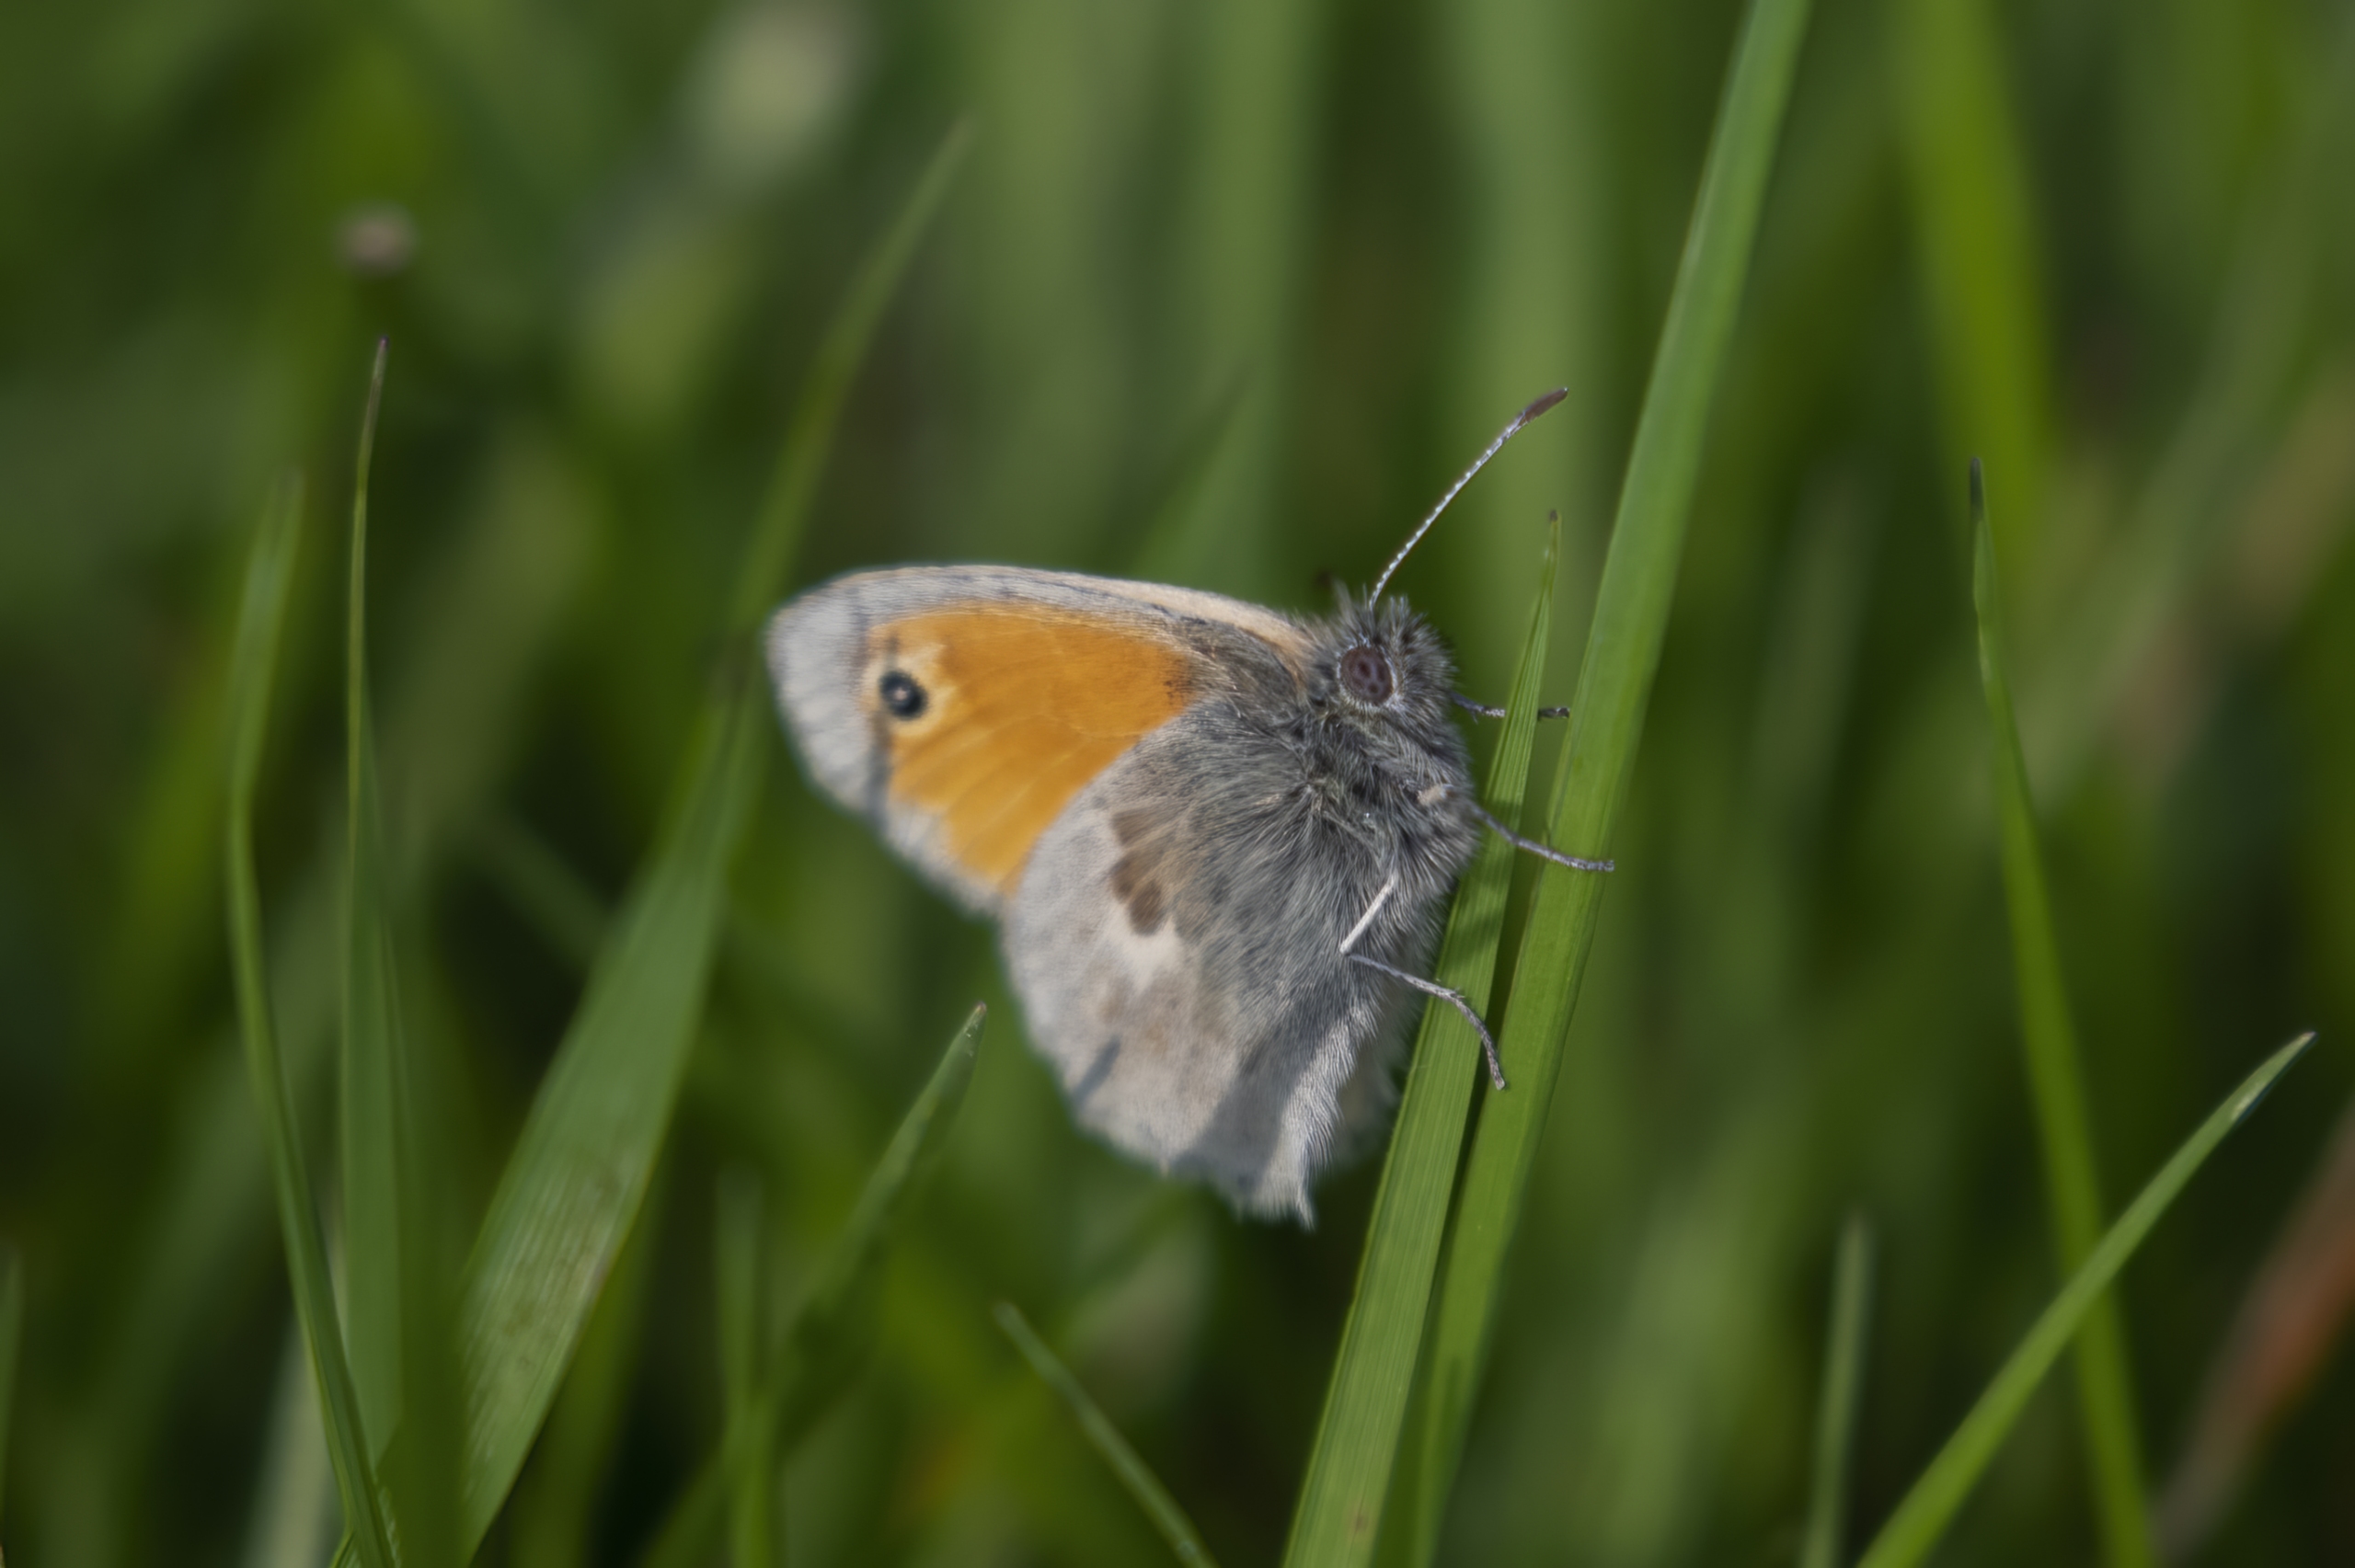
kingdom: Animalia
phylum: Arthropoda
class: Insecta
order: Lepidoptera
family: Nymphalidae
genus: Coenonympha
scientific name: Coenonympha pamphilus
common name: Okkergul randøje
